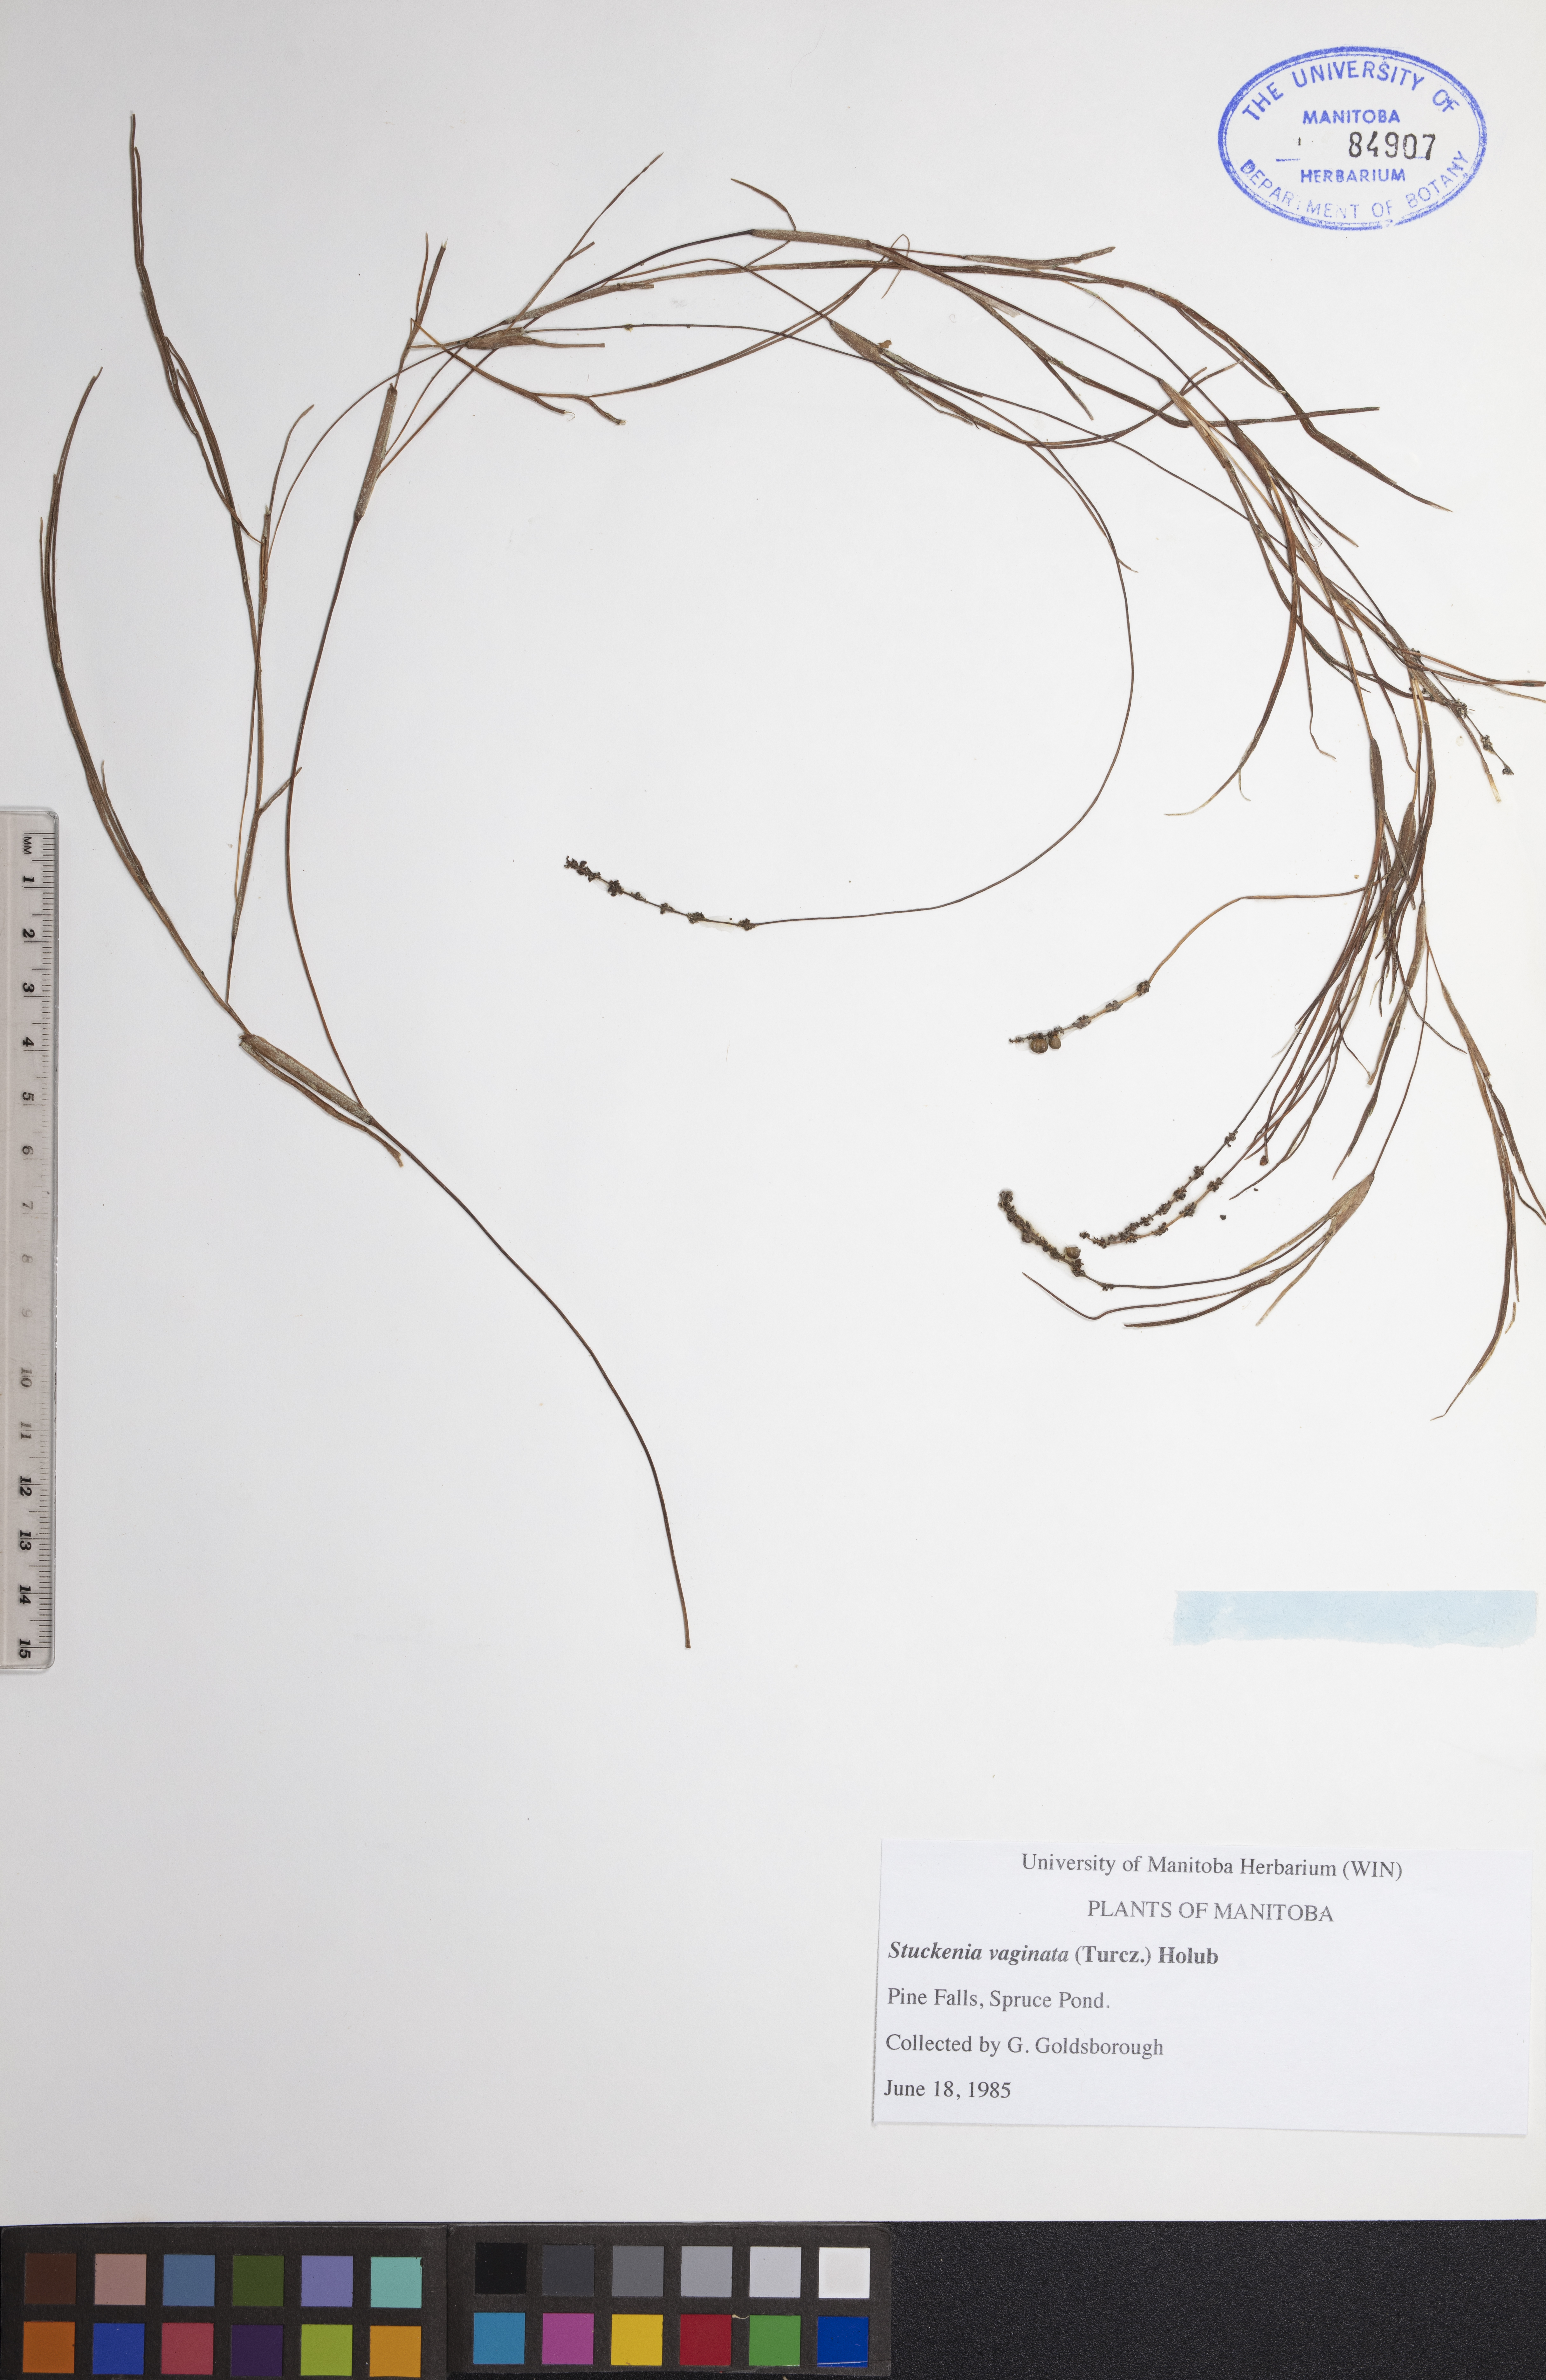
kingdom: Plantae
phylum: Tracheophyta
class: Liliopsida
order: Alismatales
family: Potamogetonaceae
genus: Stuckenia
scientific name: Stuckenia vaginata
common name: Big-sheathed pondweed
